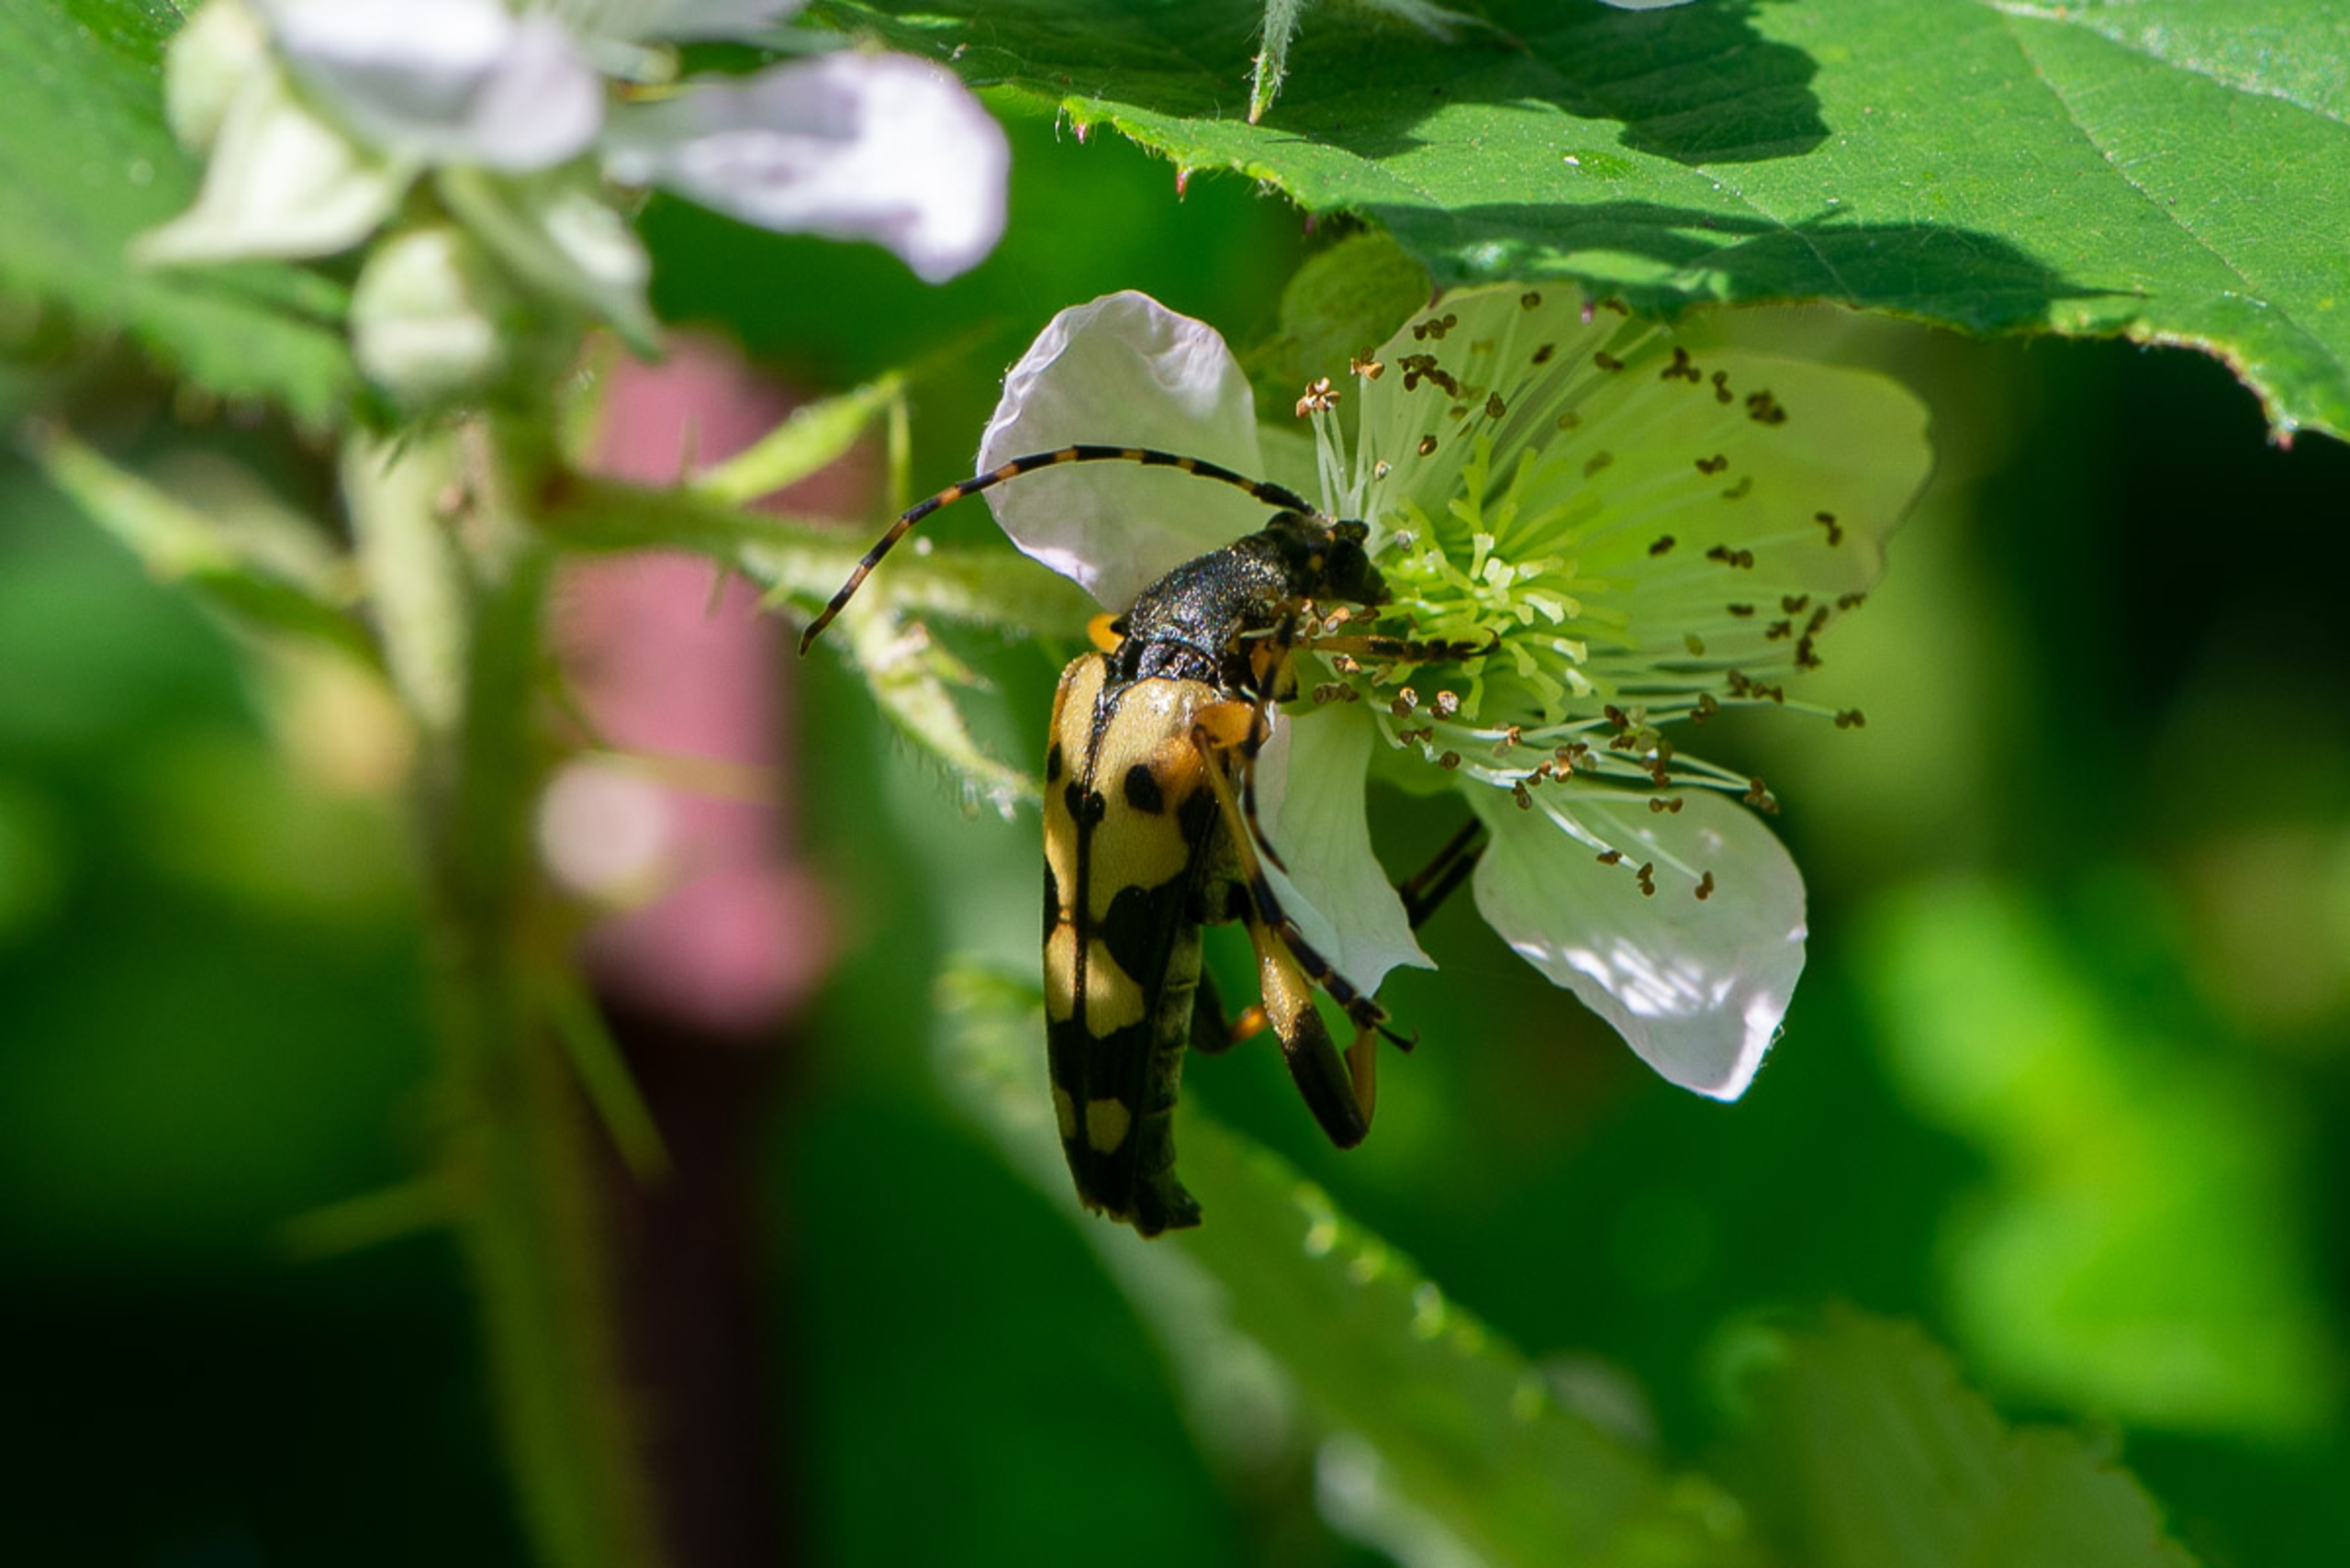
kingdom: Animalia
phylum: Arthropoda
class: Insecta
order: Coleoptera
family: Cerambycidae
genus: Rutpela
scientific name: Rutpela maculata
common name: Sydlig blomsterbuk
